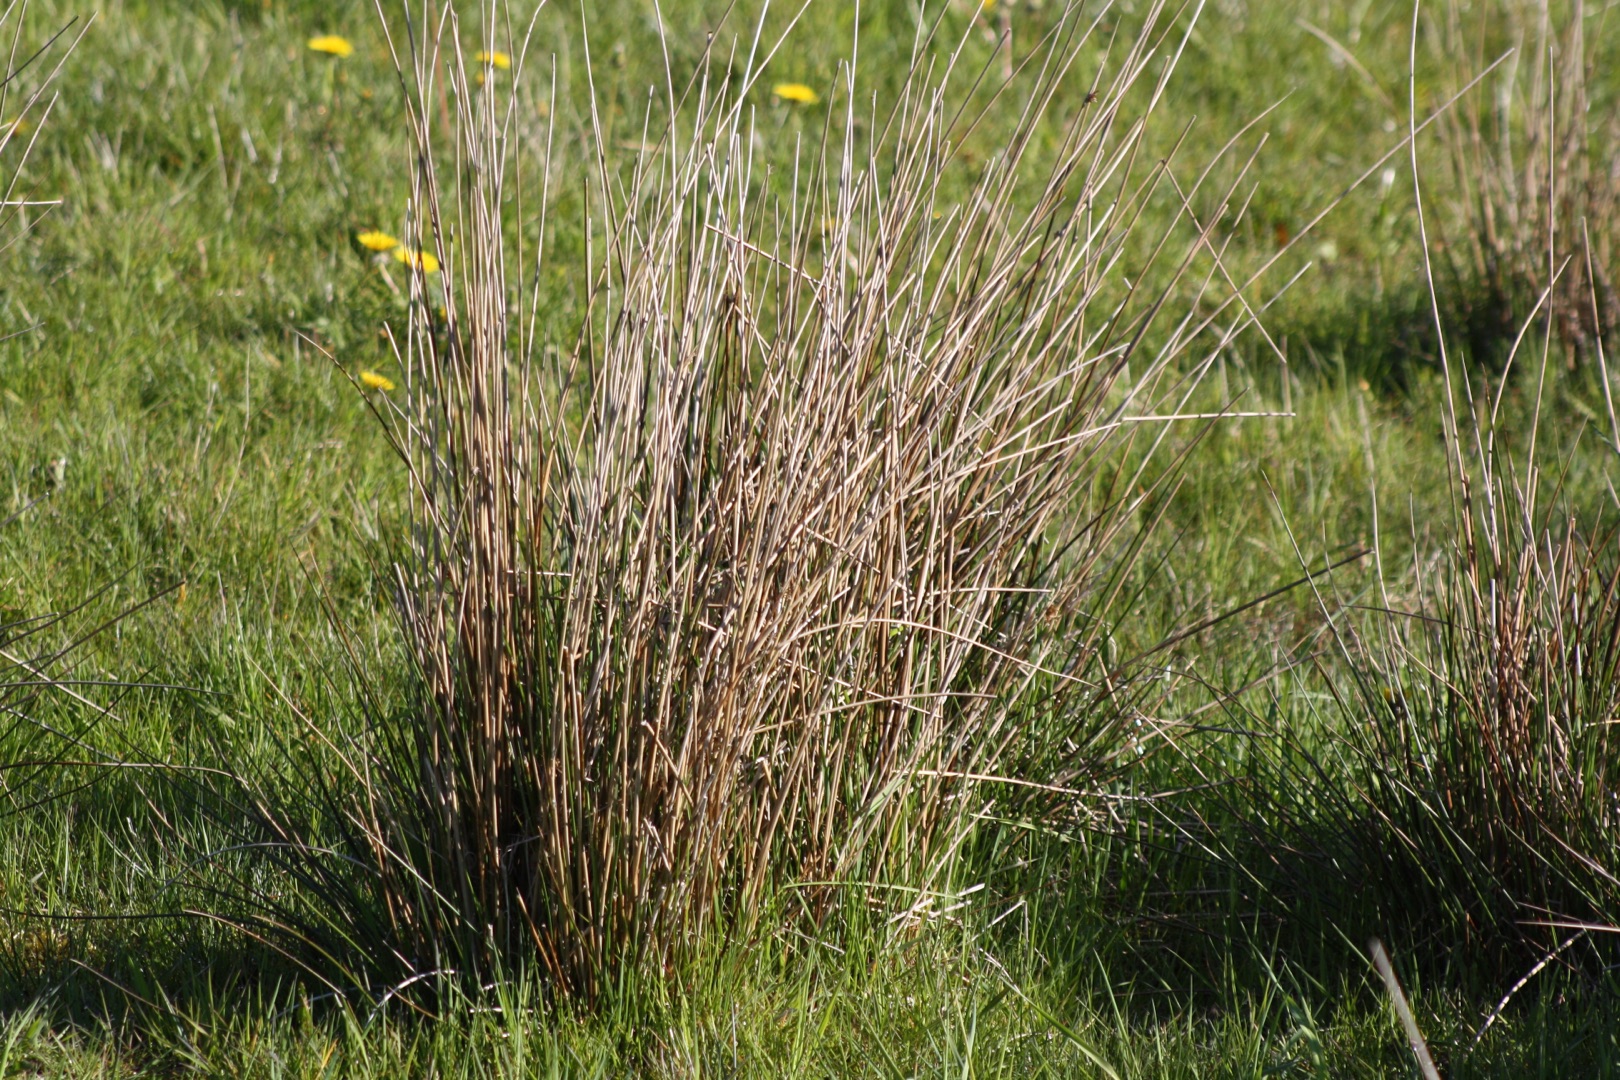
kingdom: Plantae
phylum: Tracheophyta
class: Liliopsida
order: Poales
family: Juncaceae
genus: Juncus
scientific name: Juncus effusus
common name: Lyse-siv
